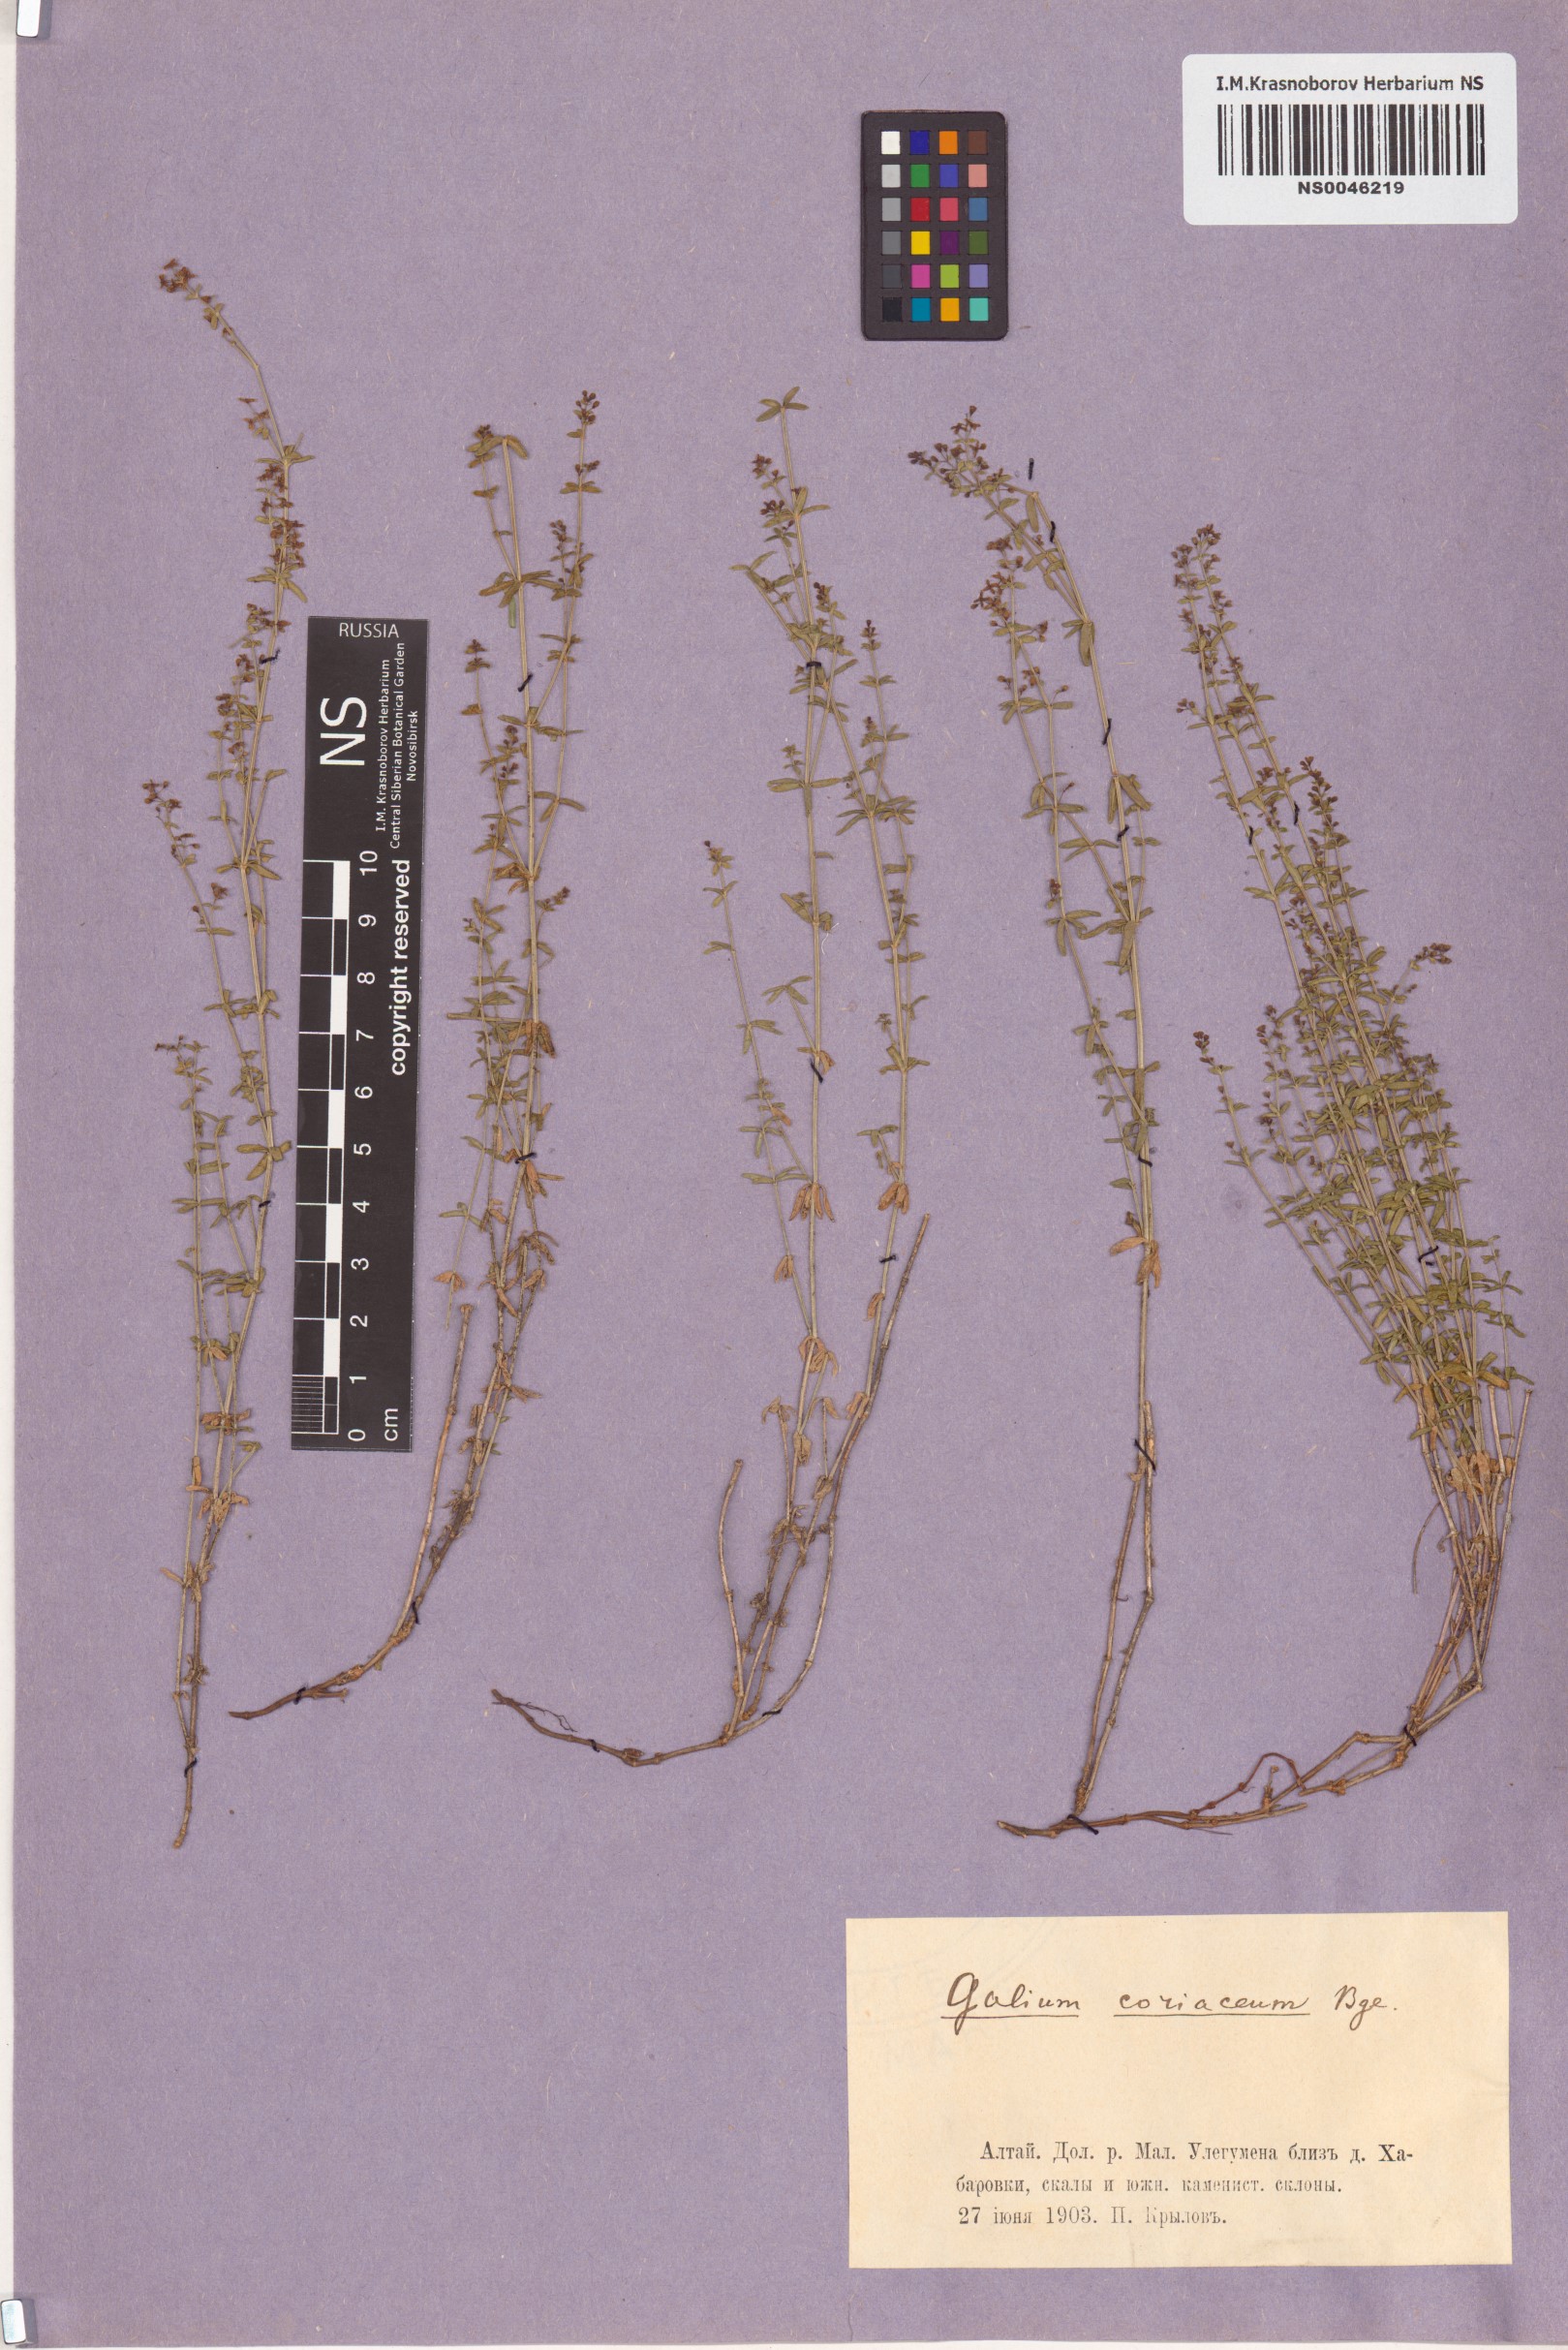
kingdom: Plantae
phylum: Tracheophyta
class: Magnoliopsida
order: Gentianales
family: Rubiaceae
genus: Galium
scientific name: Galium coriaceum
